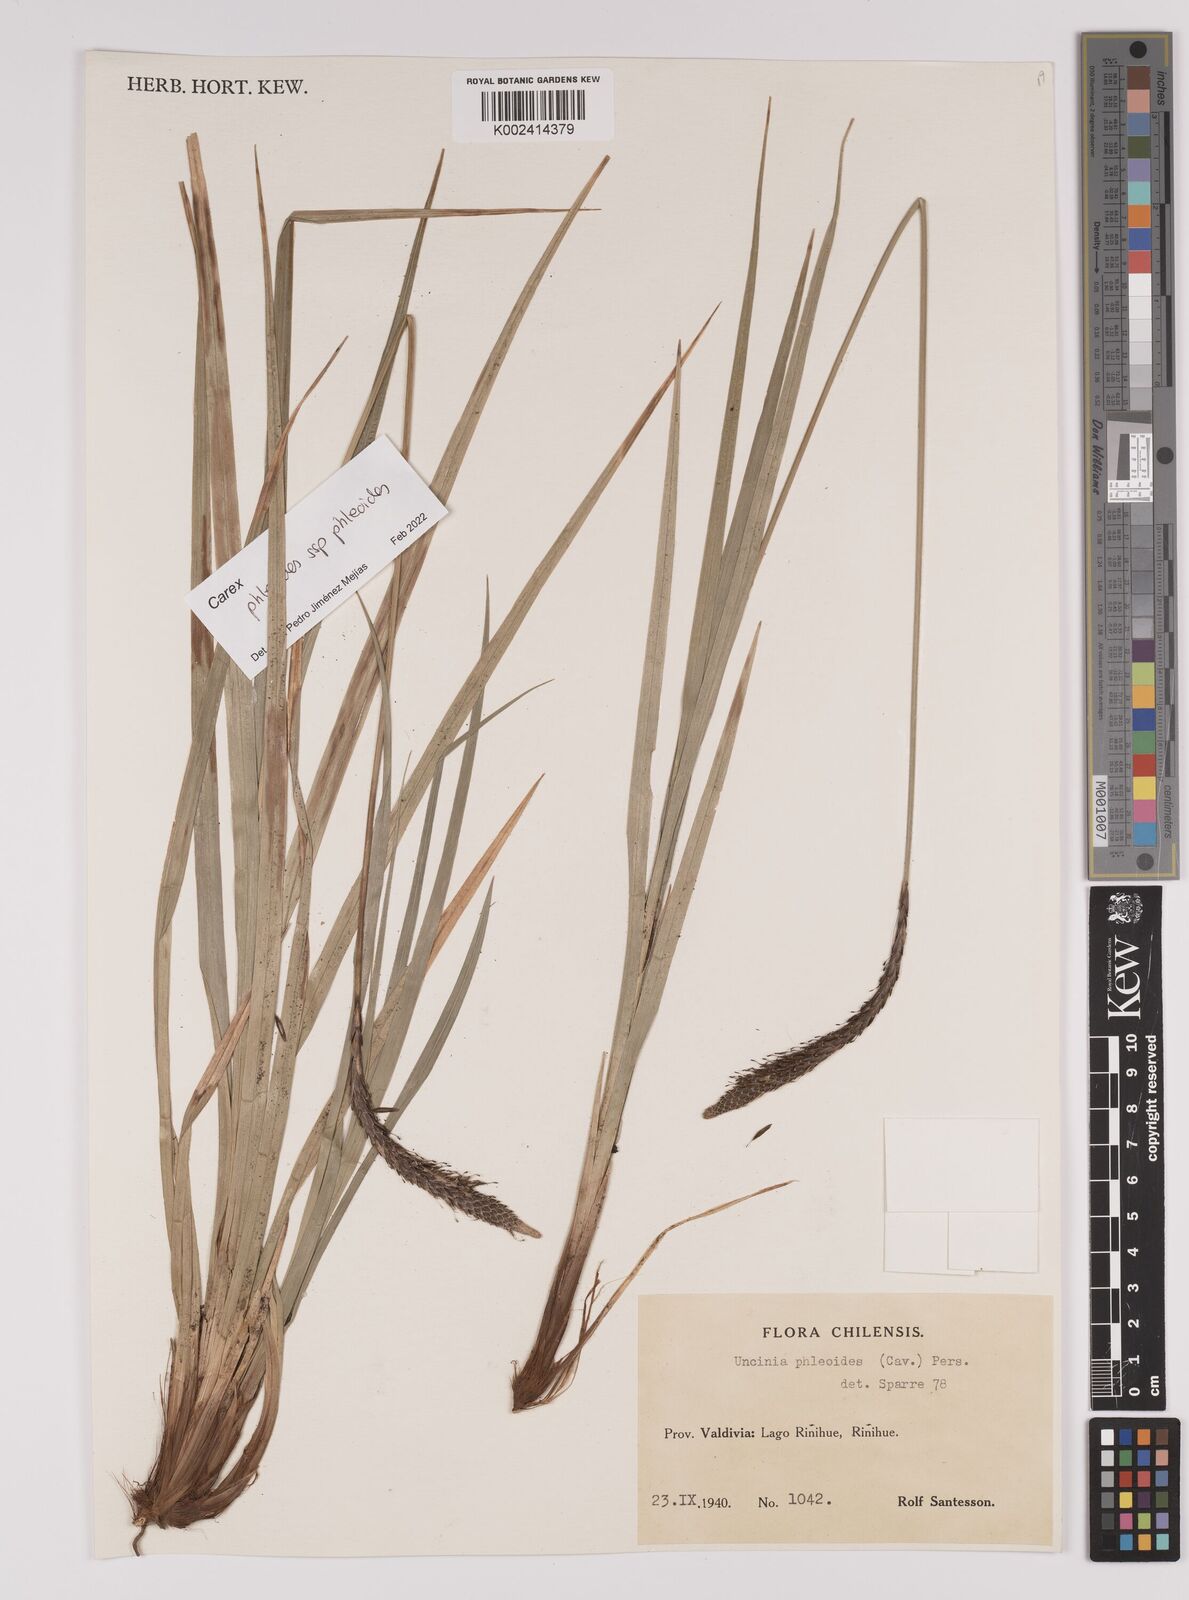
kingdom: Plantae
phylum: Tracheophyta
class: Liliopsida
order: Poales
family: Cyperaceae
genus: Carex
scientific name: Carex phleoides
